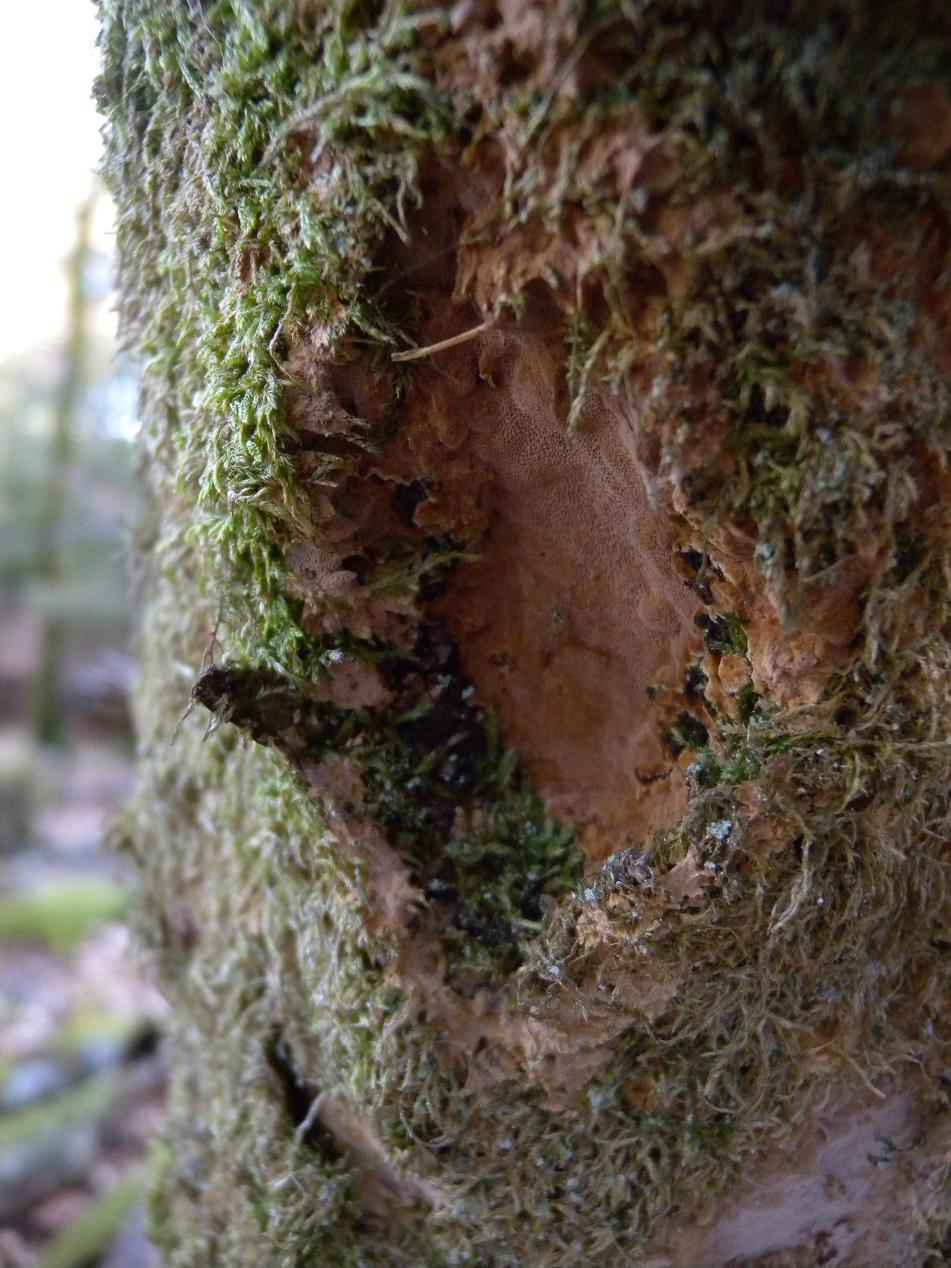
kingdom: Fungi
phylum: Basidiomycota
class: Agaricomycetes
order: Hymenochaetales
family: Hymenochaetaceae
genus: Fuscoporia
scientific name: Fuscoporia ferrea
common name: skorpe-ildporesvamp
